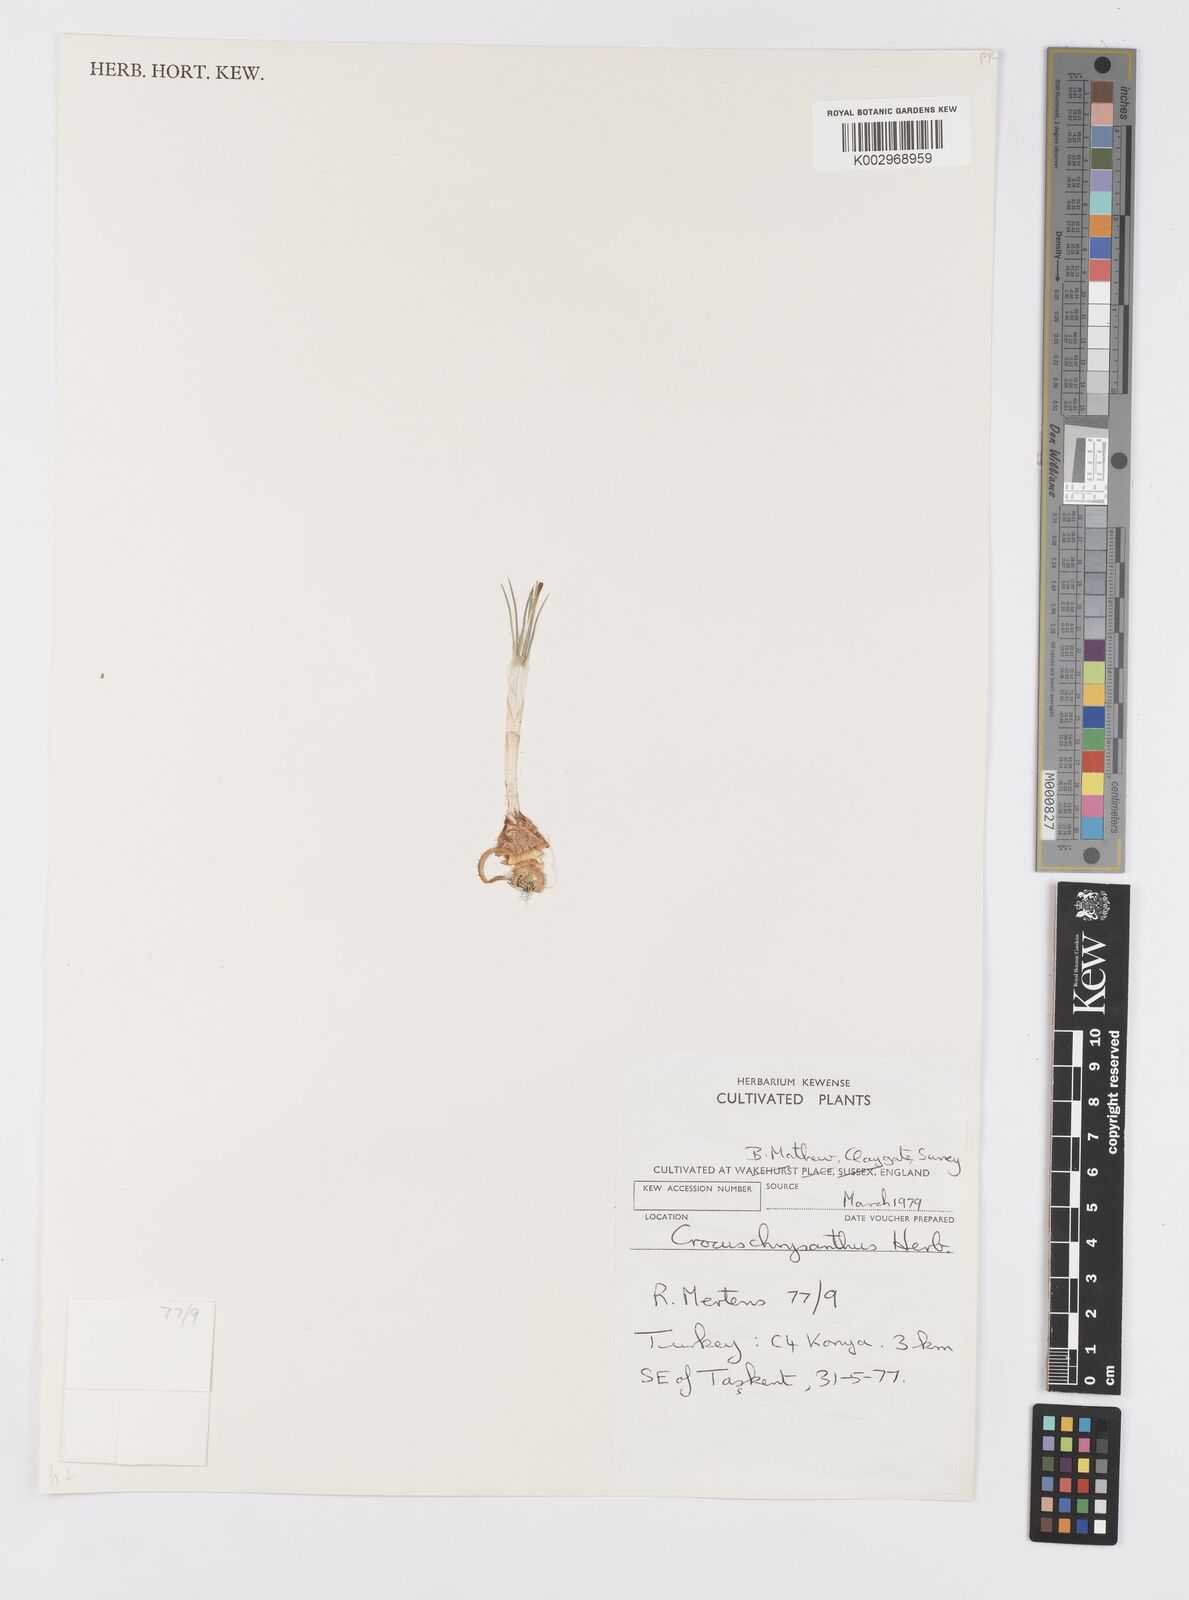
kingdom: Plantae
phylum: Tracheophyta
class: Liliopsida
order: Asparagales
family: Iridaceae
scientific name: Iridaceae
